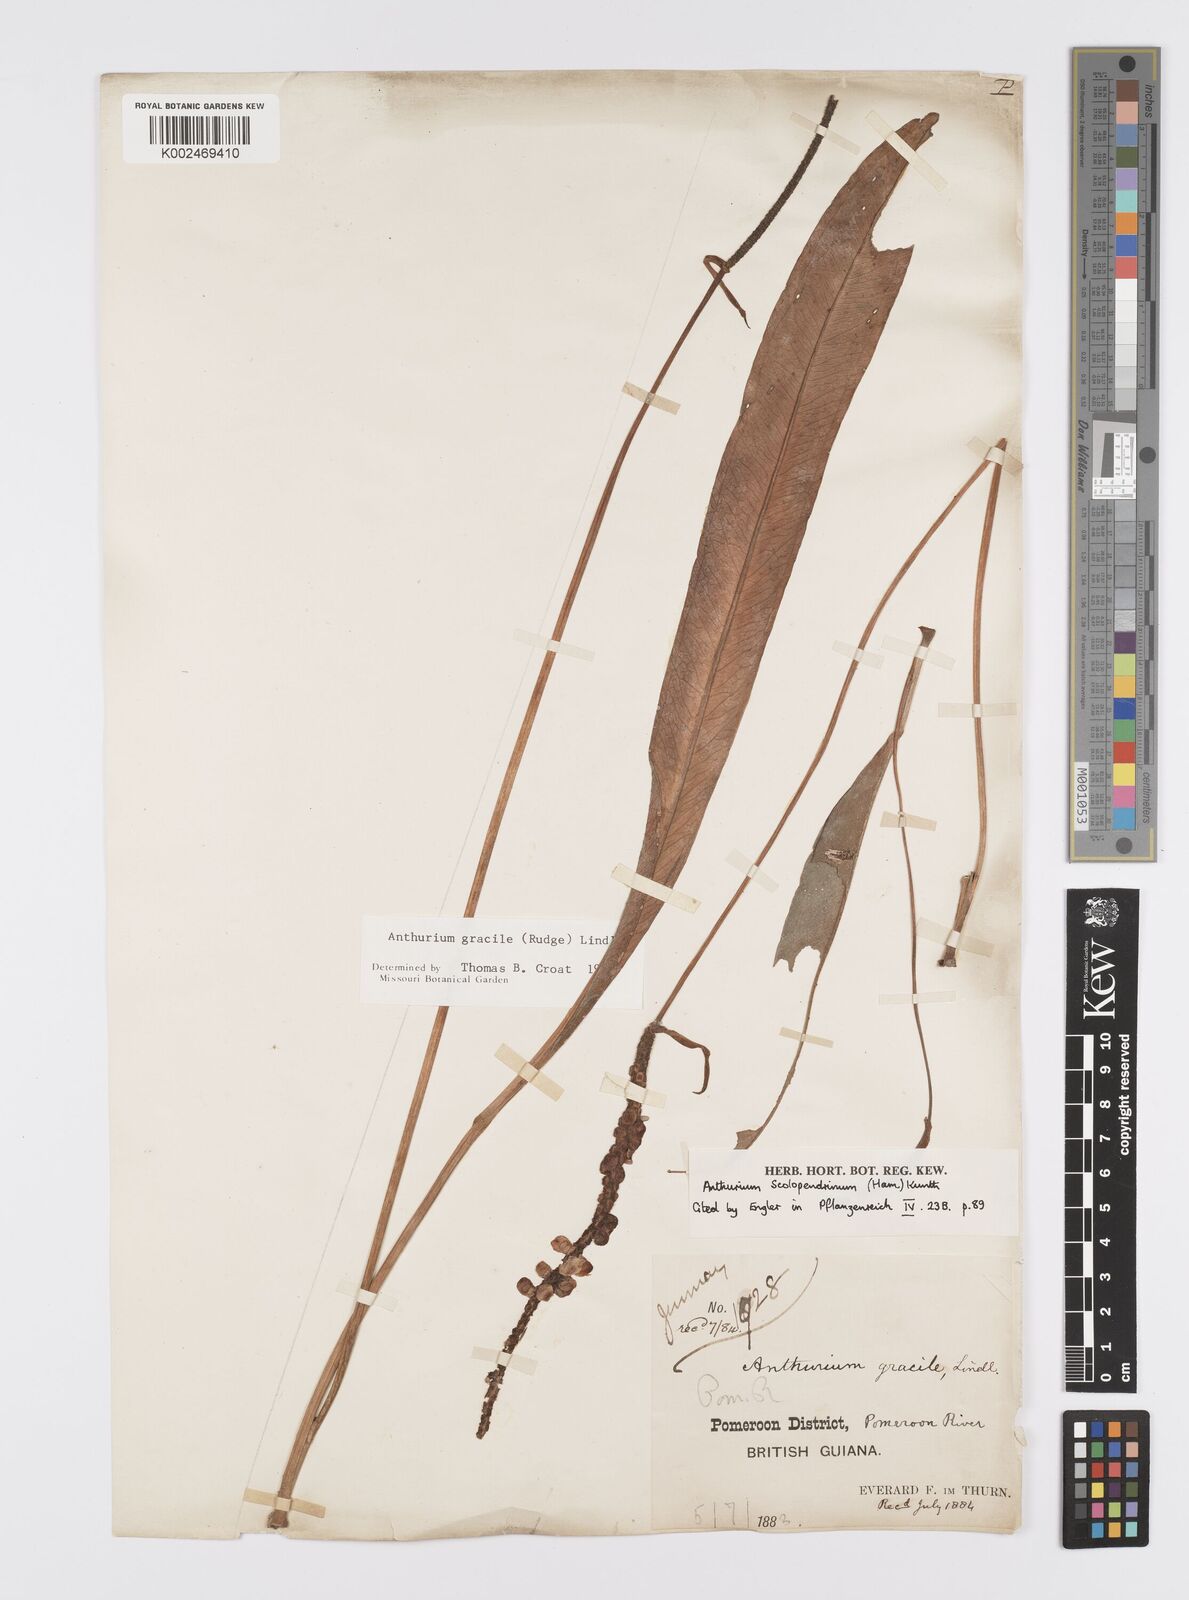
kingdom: Plantae
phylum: Tracheophyta
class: Liliopsida
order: Alismatales
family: Araceae
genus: Anthurium
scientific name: Anthurium gracile
